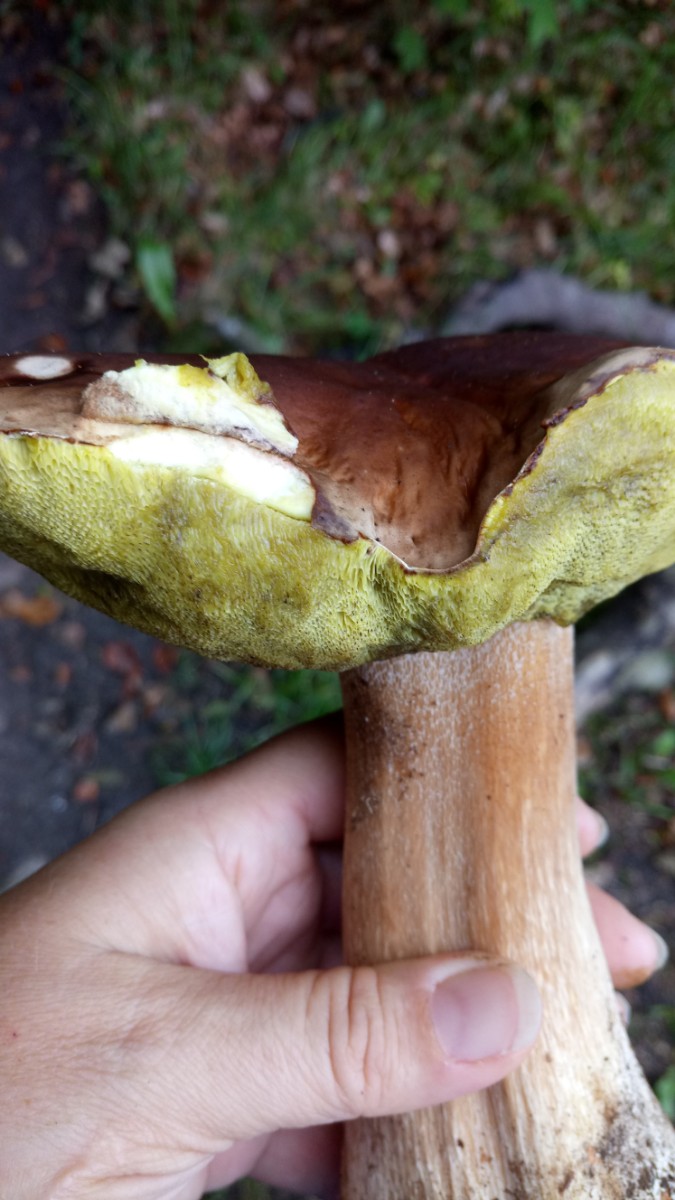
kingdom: Fungi
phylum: Basidiomycota
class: Agaricomycetes
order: Boletales
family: Boletaceae
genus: Boletus
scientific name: Boletus edulis
